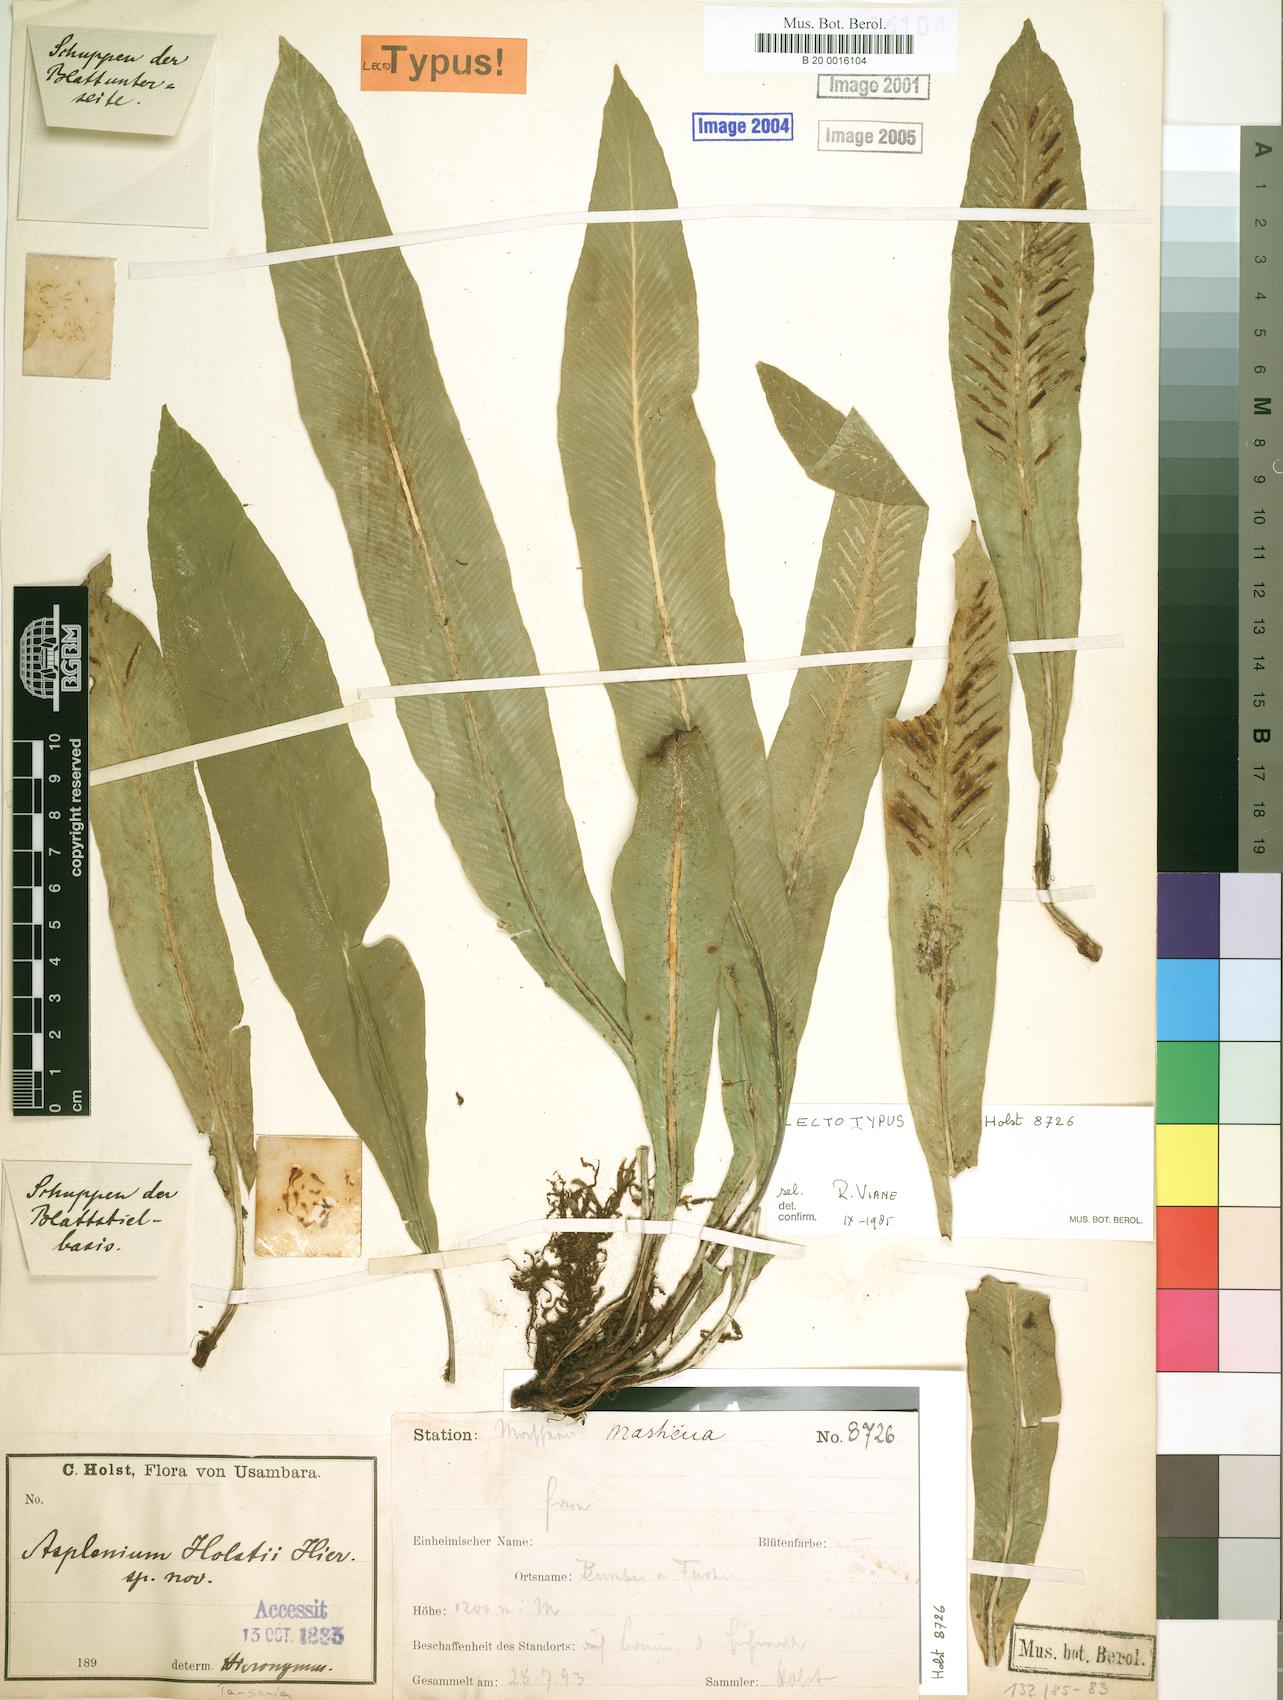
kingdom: Plantae
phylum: Tracheophyta
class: Polypodiopsida
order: Polypodiales
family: Aspleniaceae
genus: Asplenium
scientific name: Asplenium holstii
